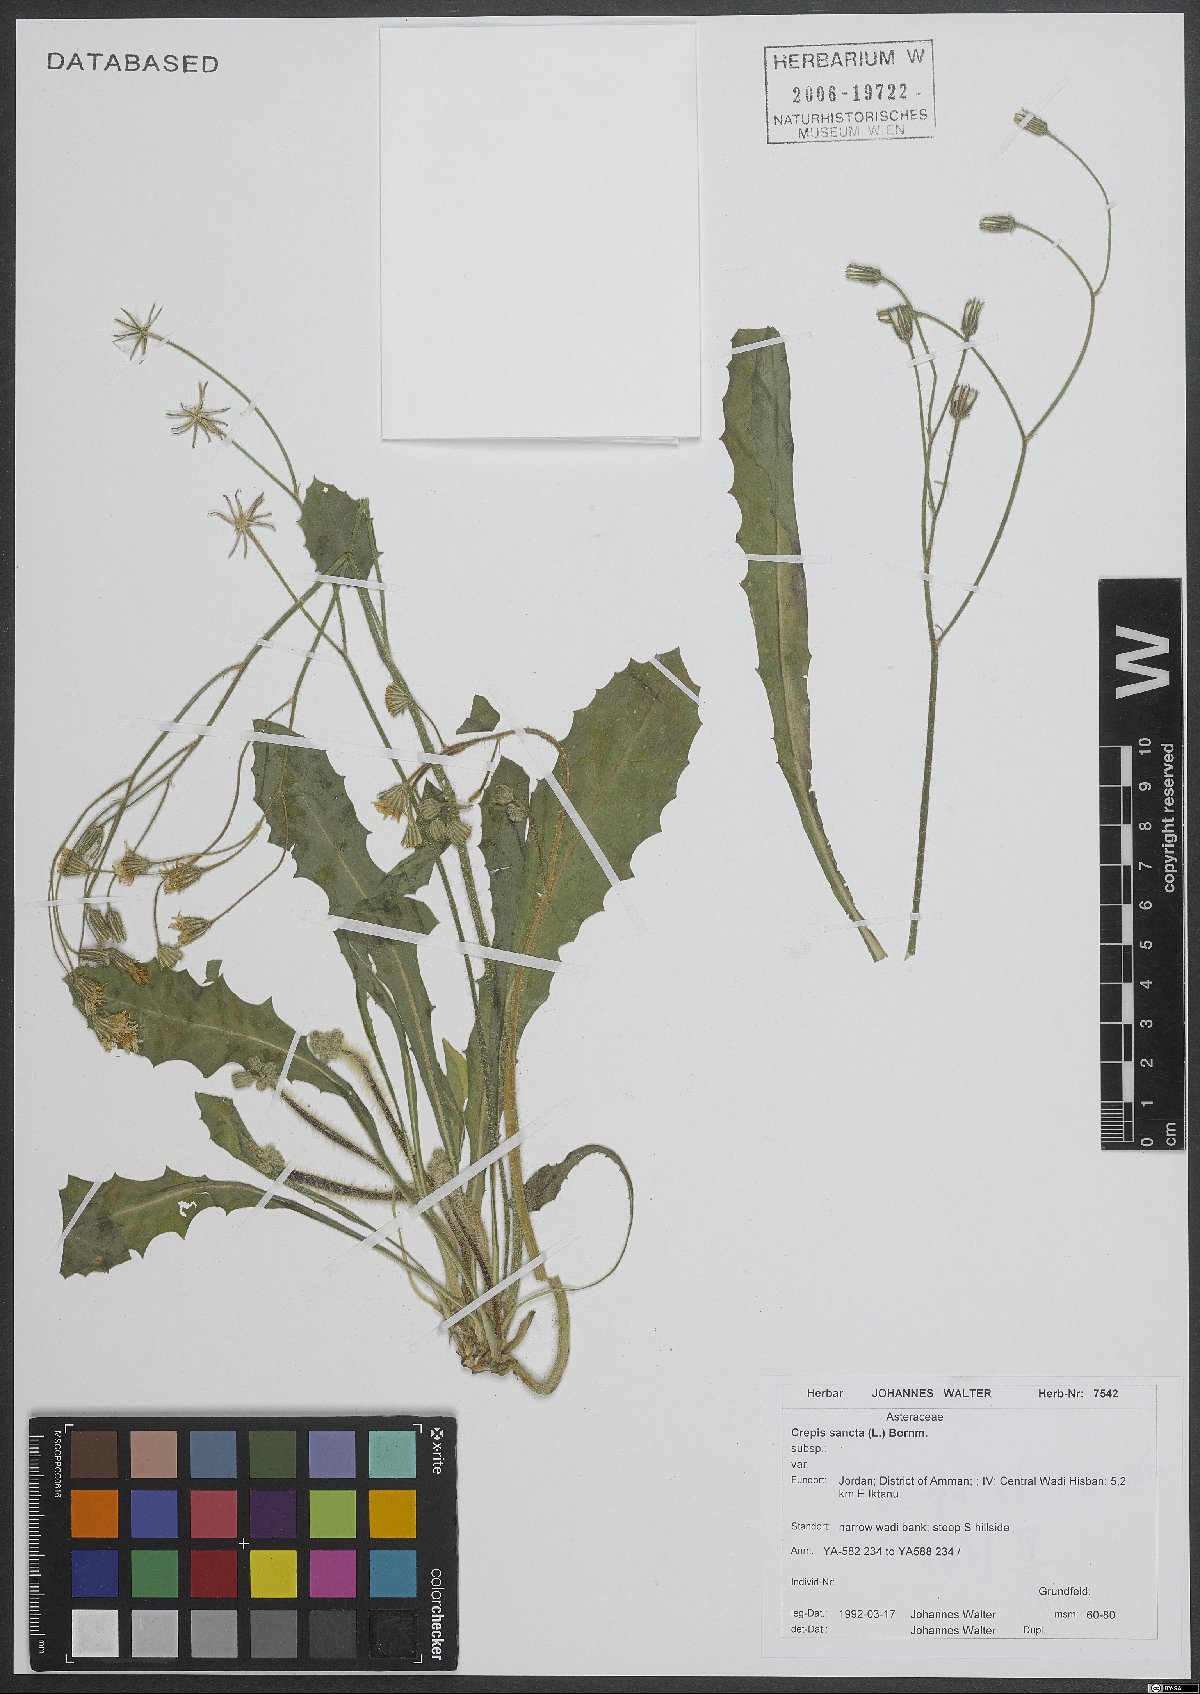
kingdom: Plantae
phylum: Tracheophyta
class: Magnoliopsida
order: Asterales
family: Asteraceae
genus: Crepis
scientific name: Crepis sancta
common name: Hawk's-beard
